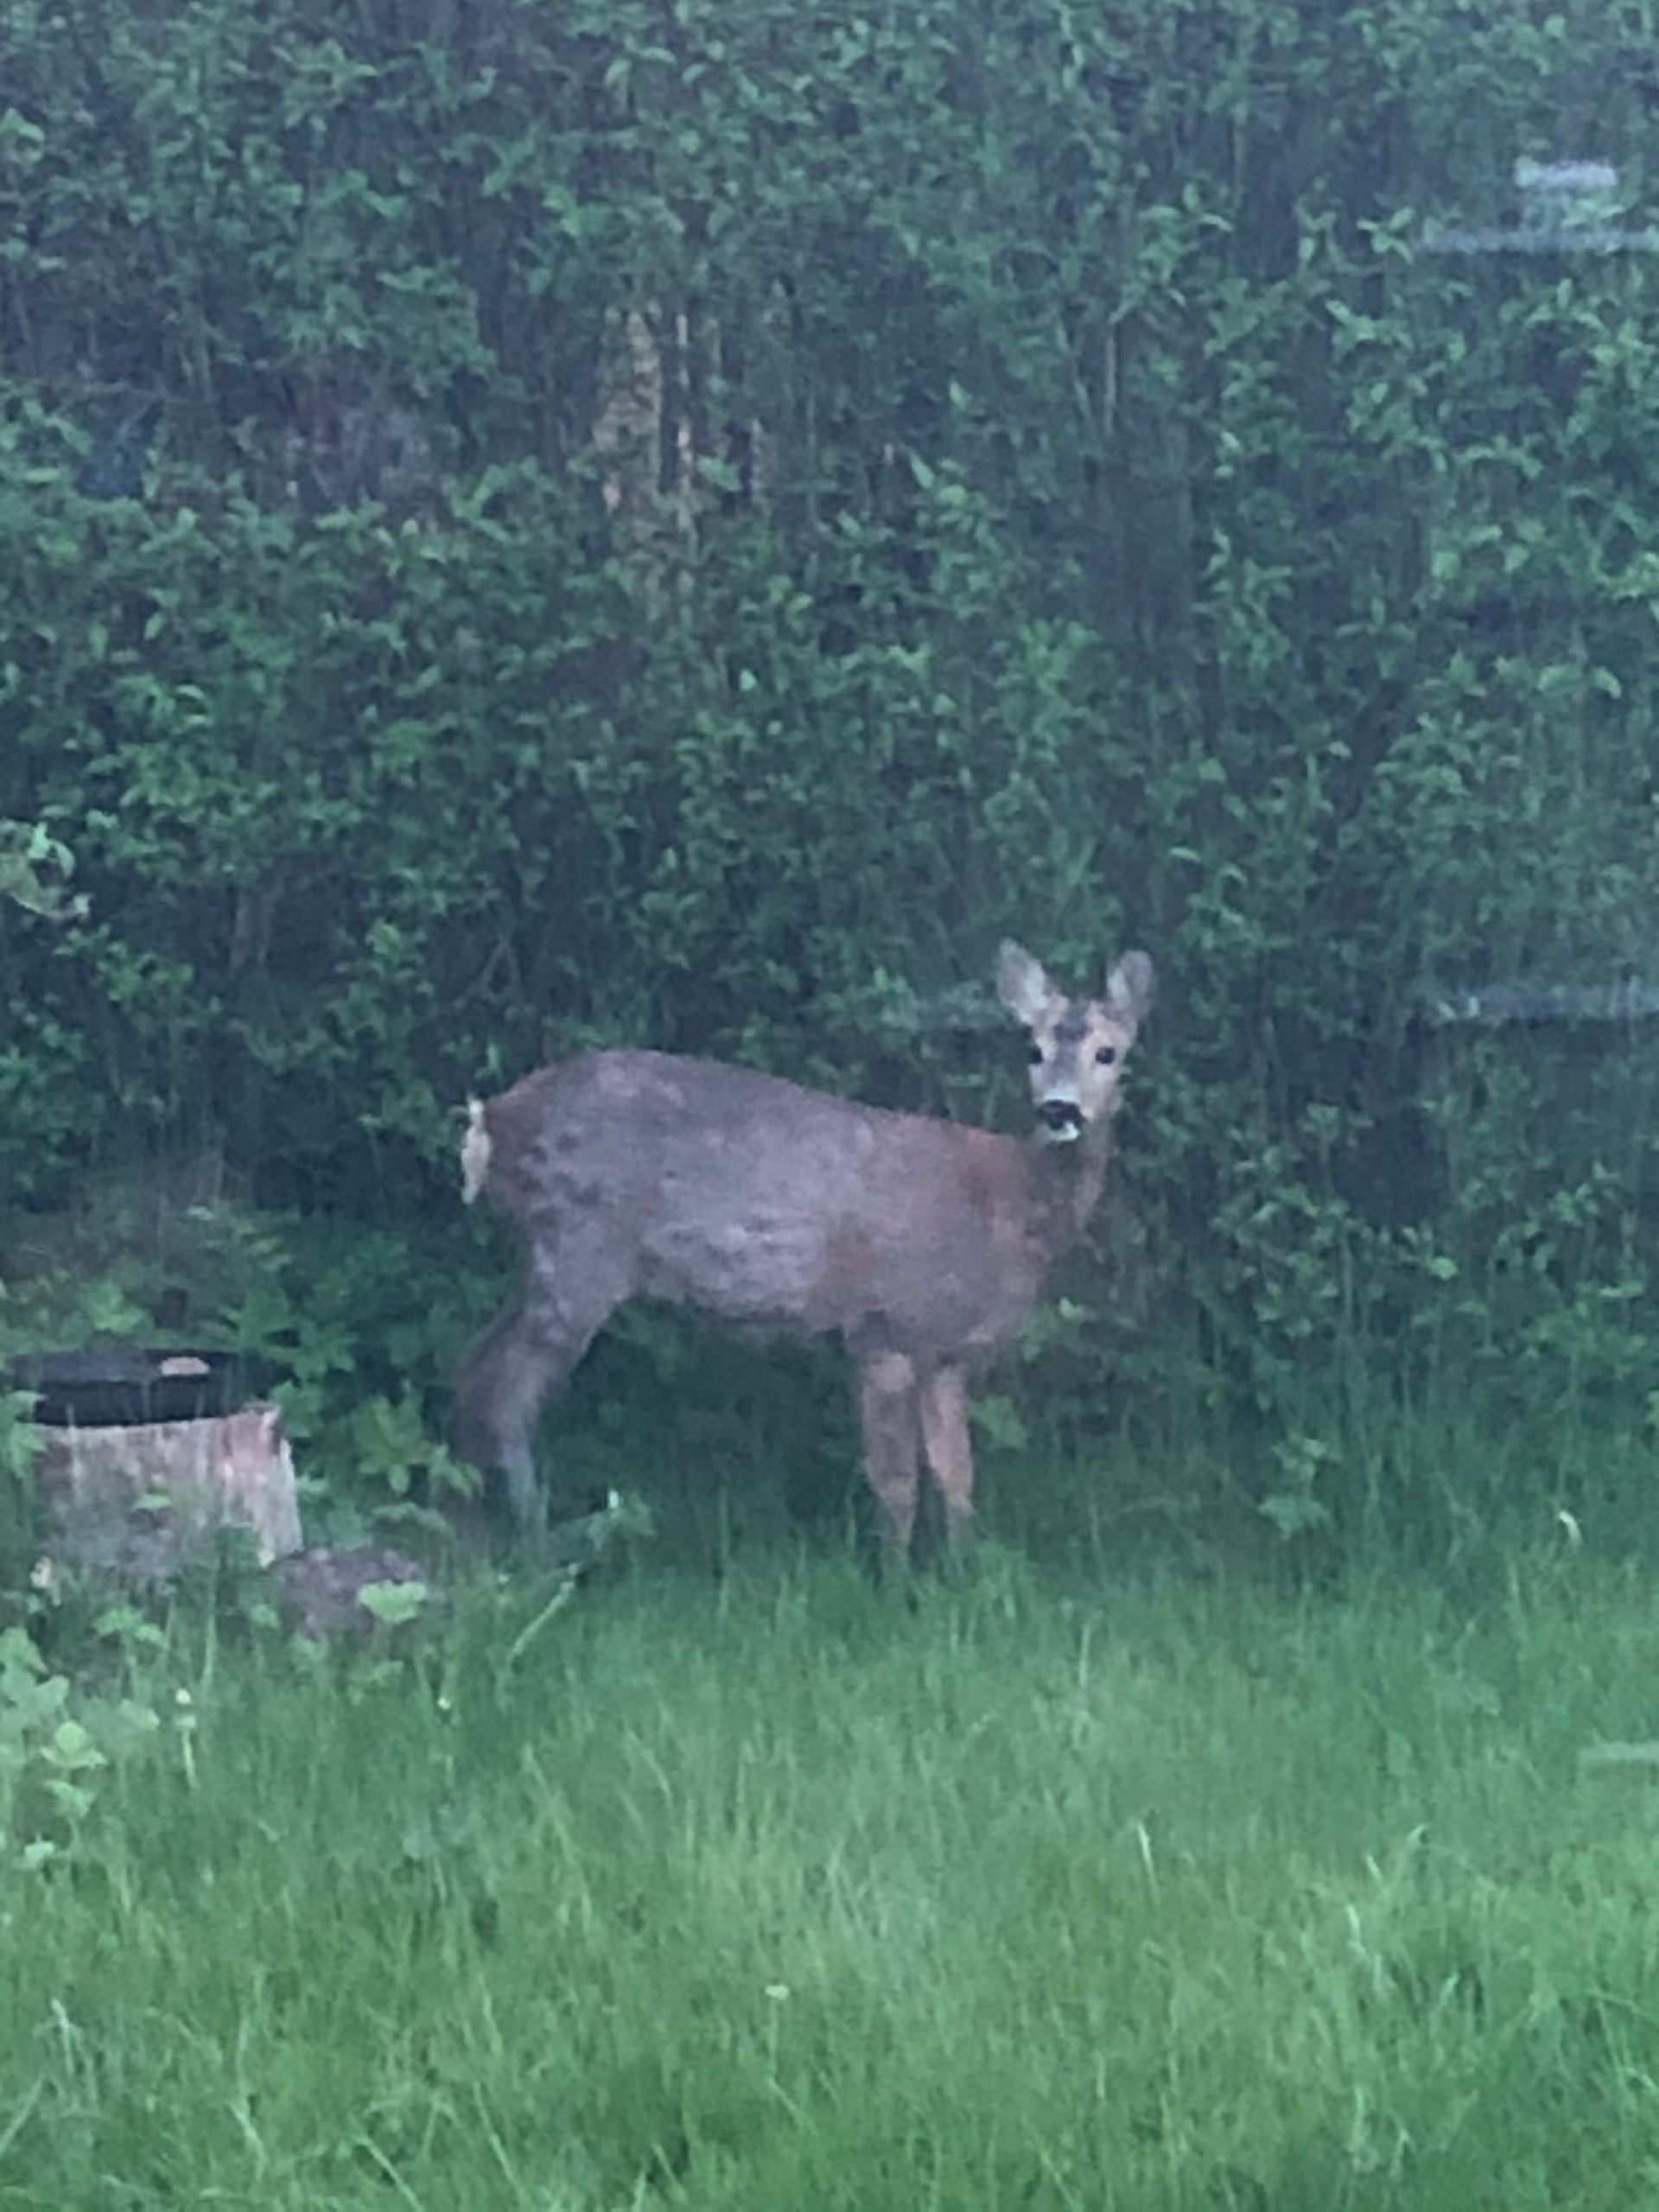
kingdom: Animalia
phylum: Chordata
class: Mammalia
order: Artiodactyla
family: Cervidae
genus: Capreolus
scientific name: Capreolus capreolus
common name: Rådyr
